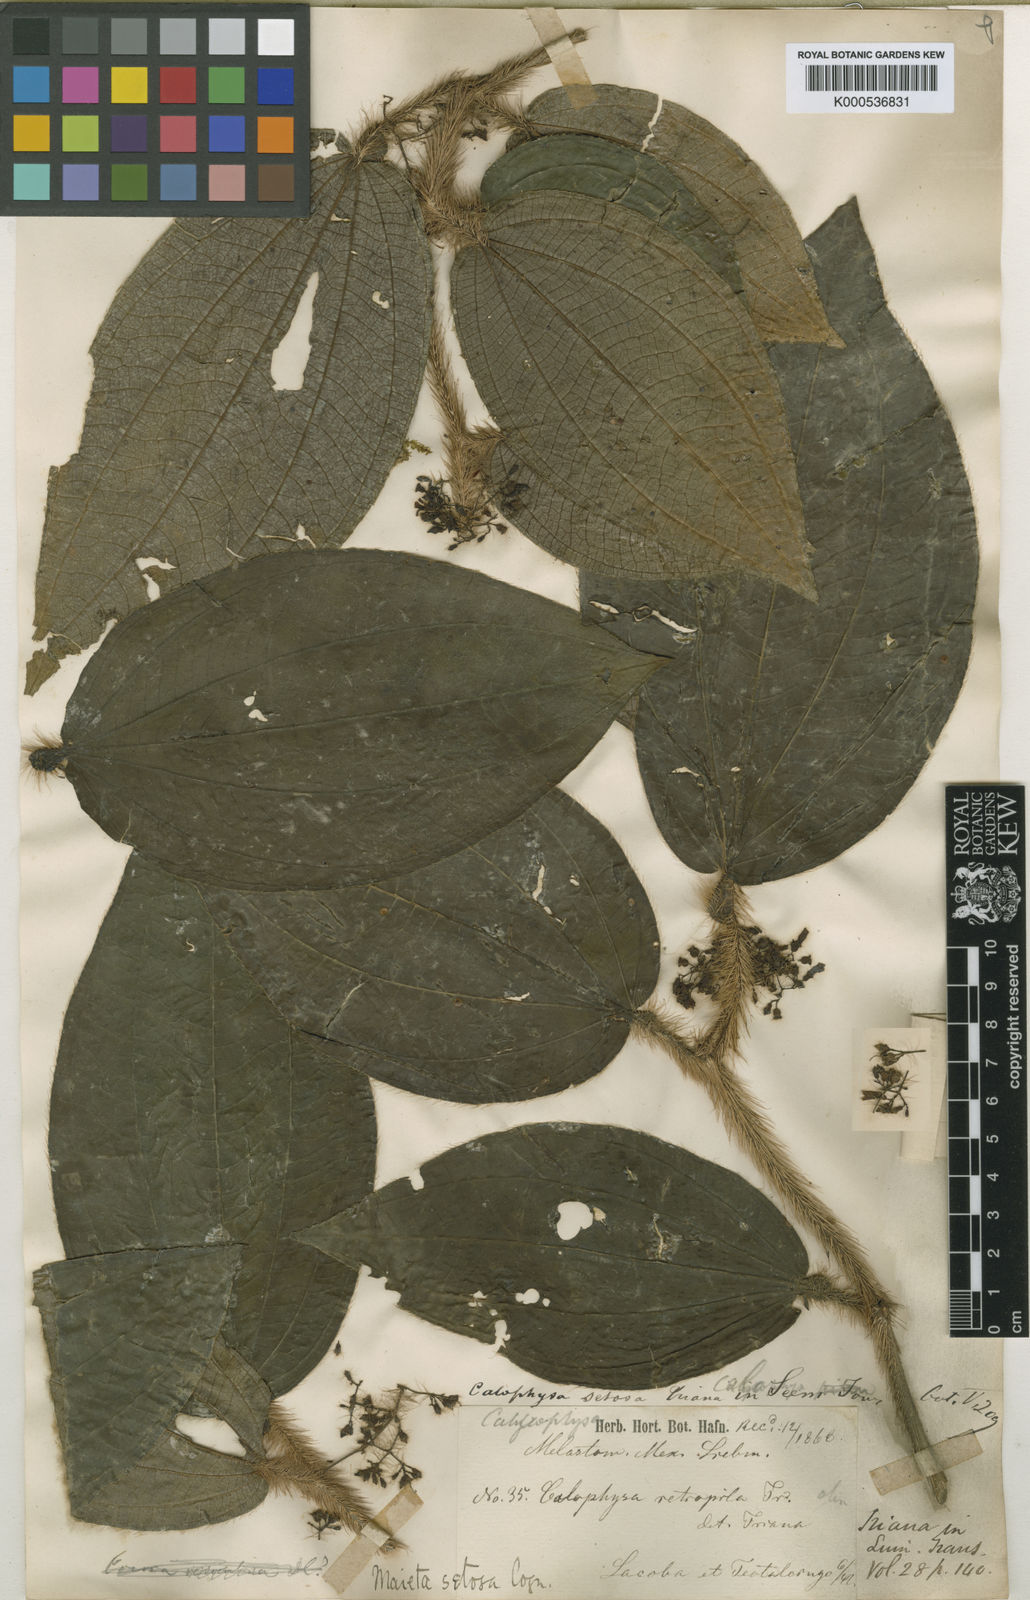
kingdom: Plantae
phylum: Tracheophyta
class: Magnoliopsida
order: Myrtales
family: Melastomataceae
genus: Miconia
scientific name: Miconia formicosetosa
